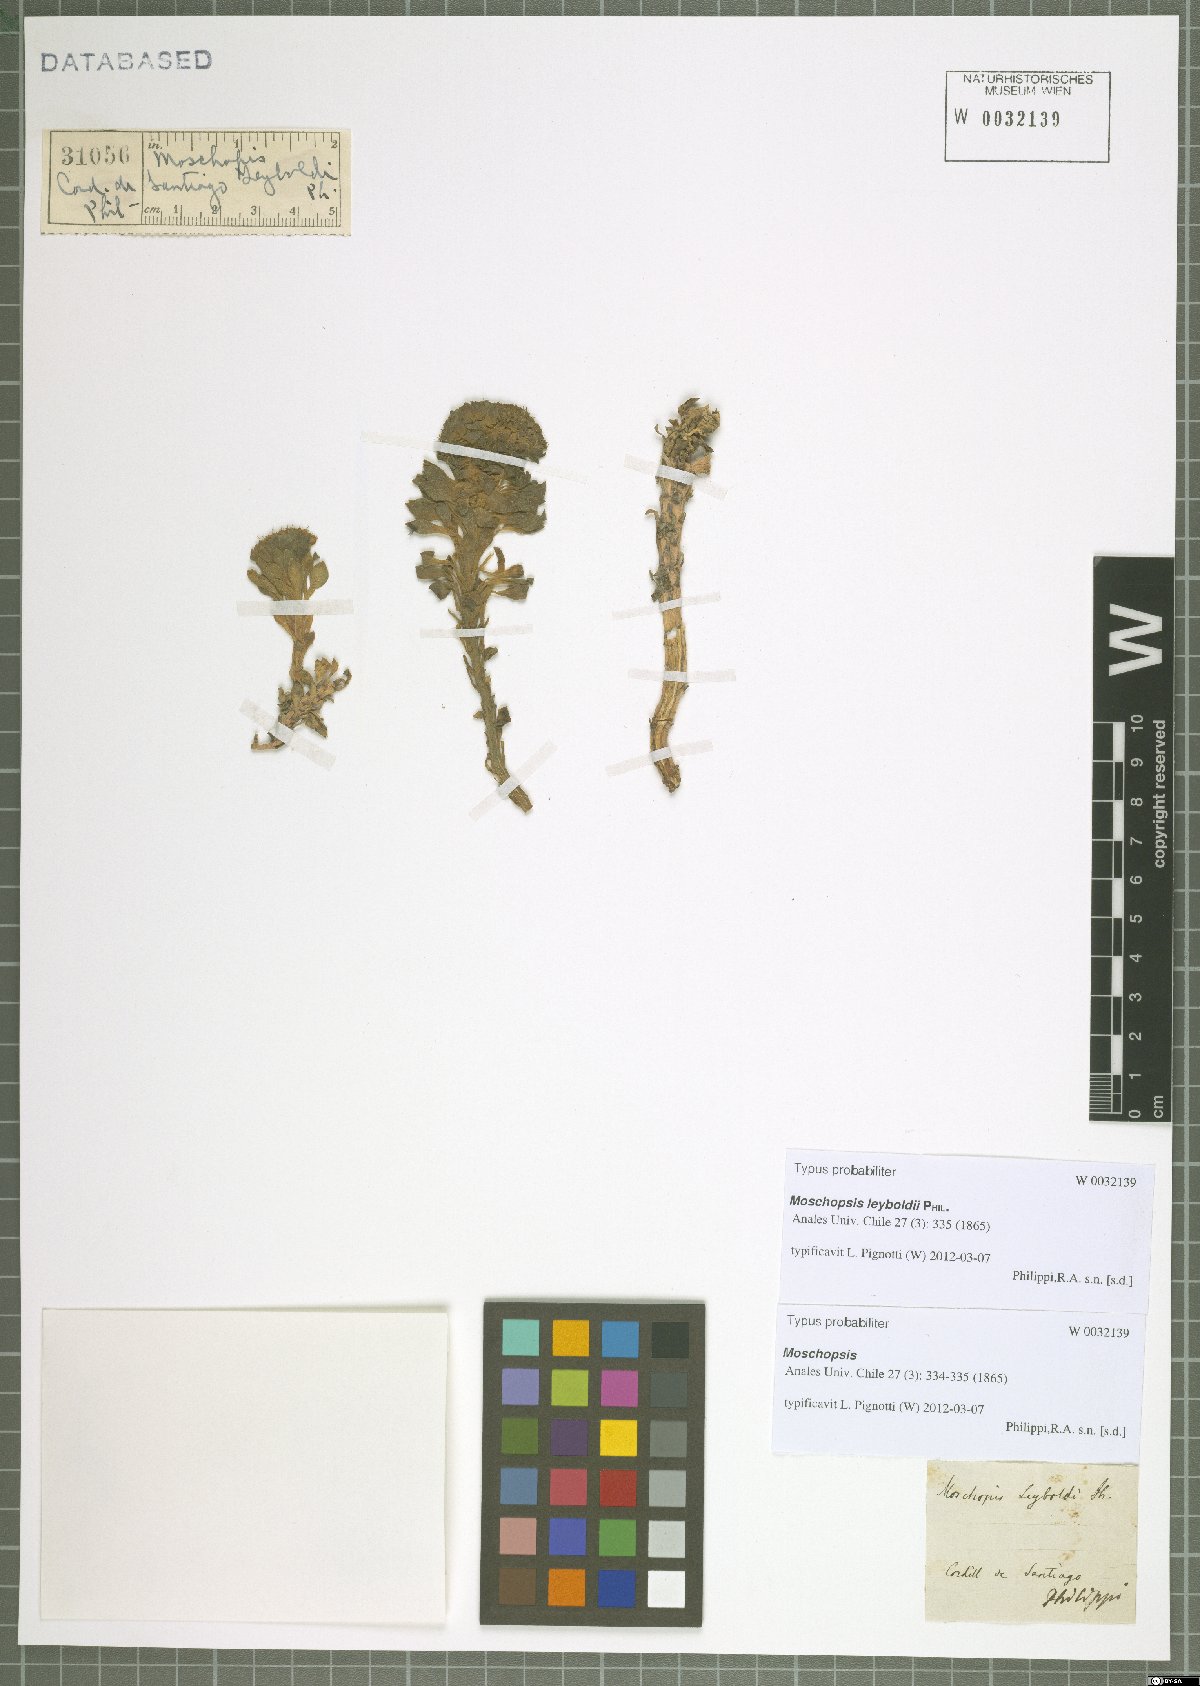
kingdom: Plantae
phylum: Tracheophyta
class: Magnoliopsida
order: Asterales
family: Calyceraceae
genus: Moschopsis
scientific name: Moschopsis leyboldii
